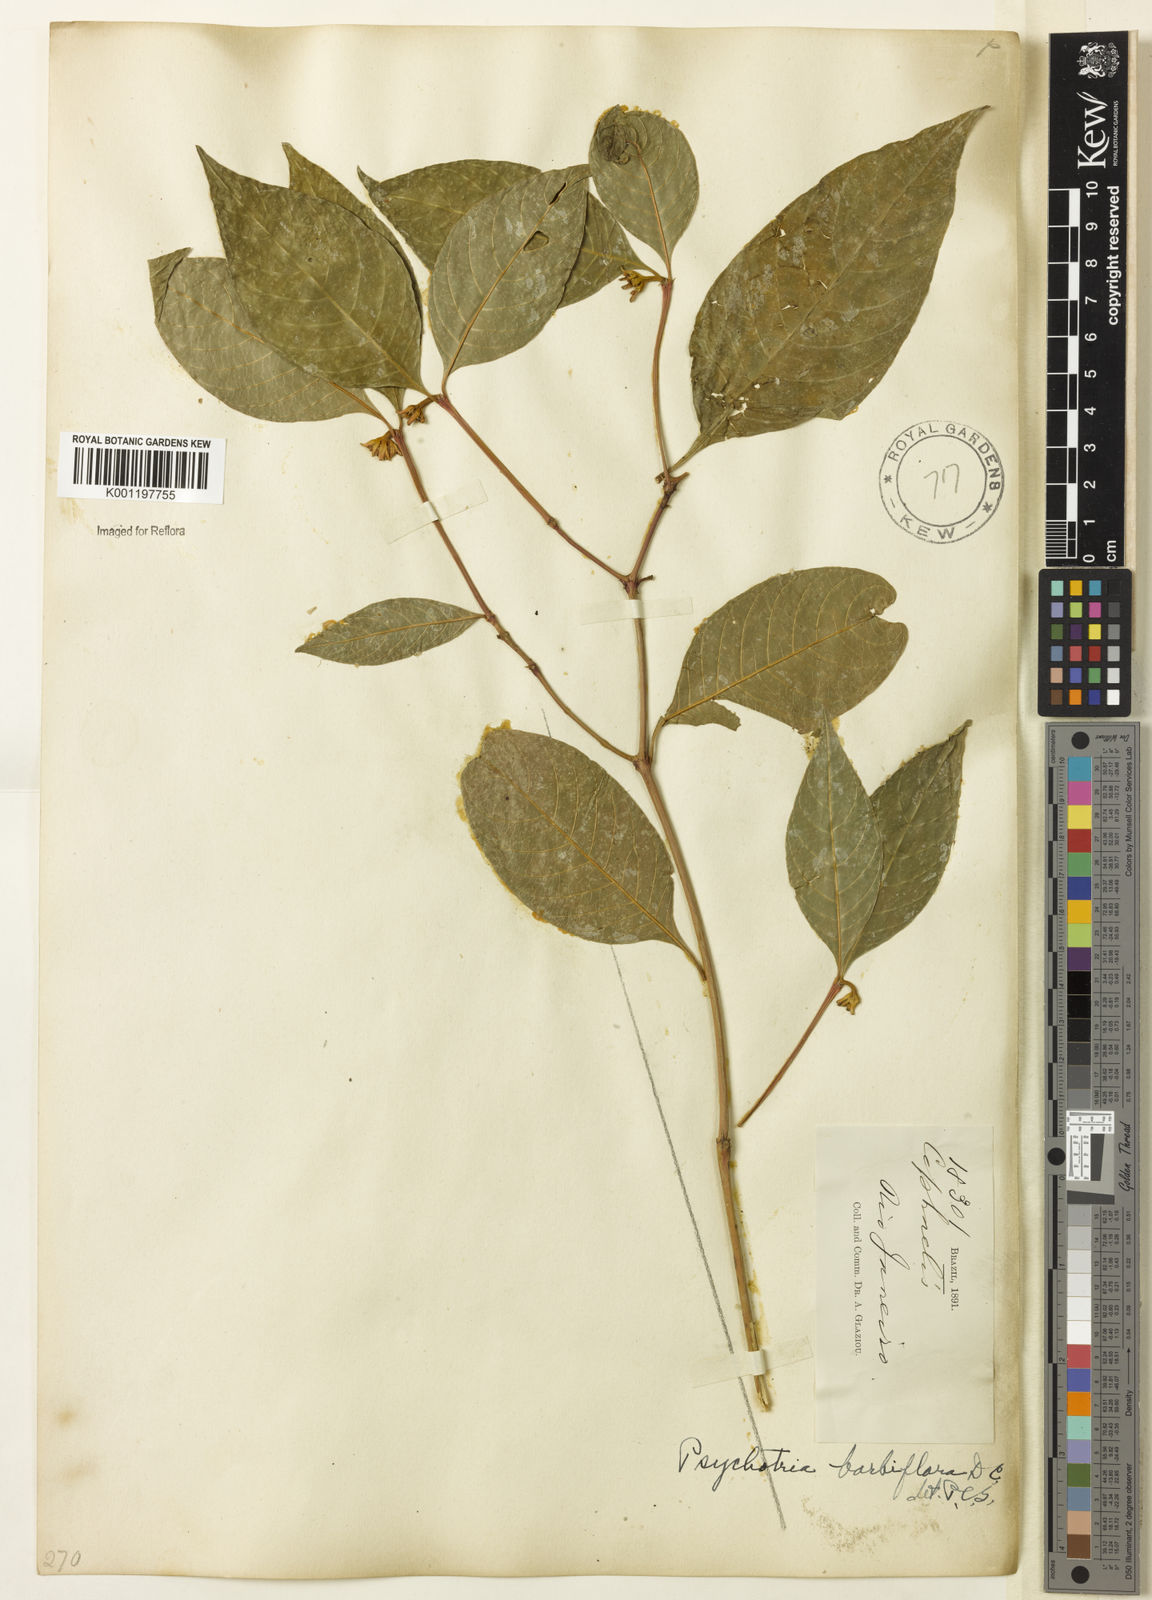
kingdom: Plantae
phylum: Tracheophyta
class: Magnoliopsida
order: Gentianales
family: Rubiaceae
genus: Palicourea
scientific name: Palicourea hoffmannseggiana
